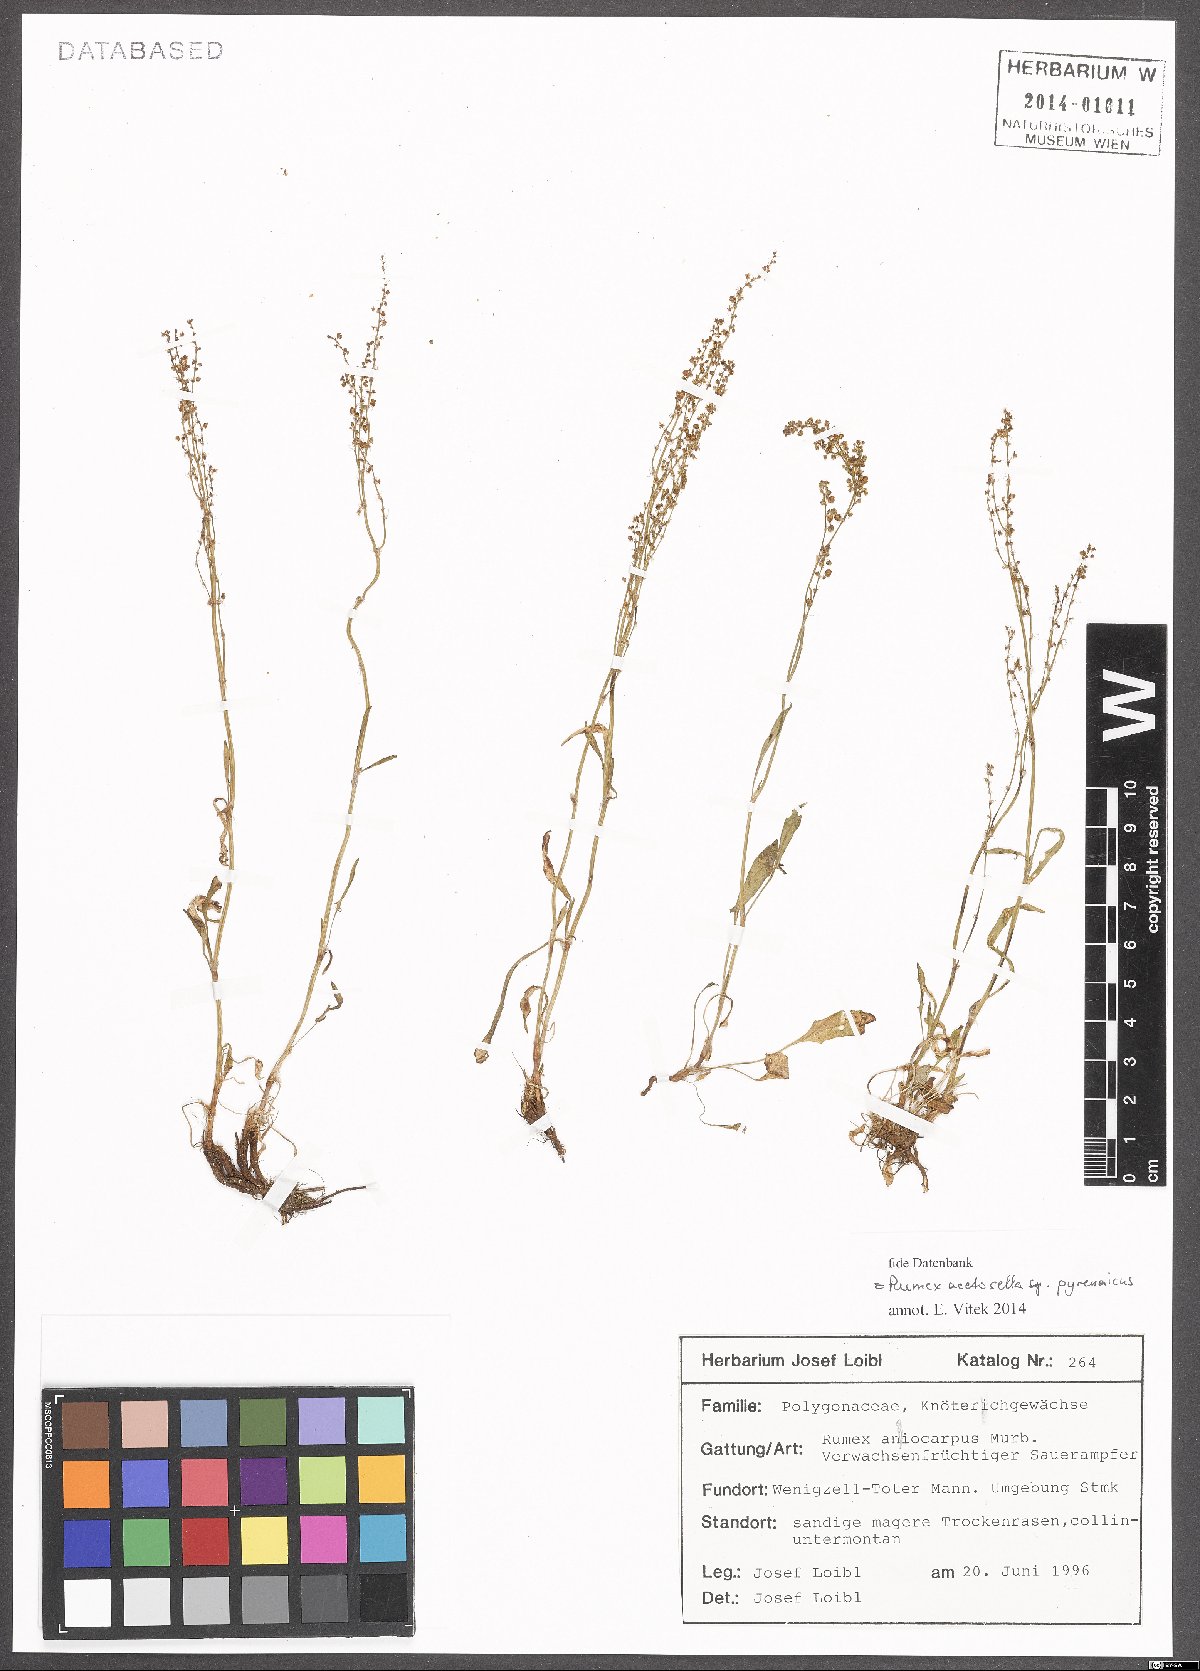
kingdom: Plantae
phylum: Tracheophyta
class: Magnoliopsida
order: Caryophyllales
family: Polygonaceae
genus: Rumex
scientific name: Rumex acetosella
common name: Common sheep sorrel
